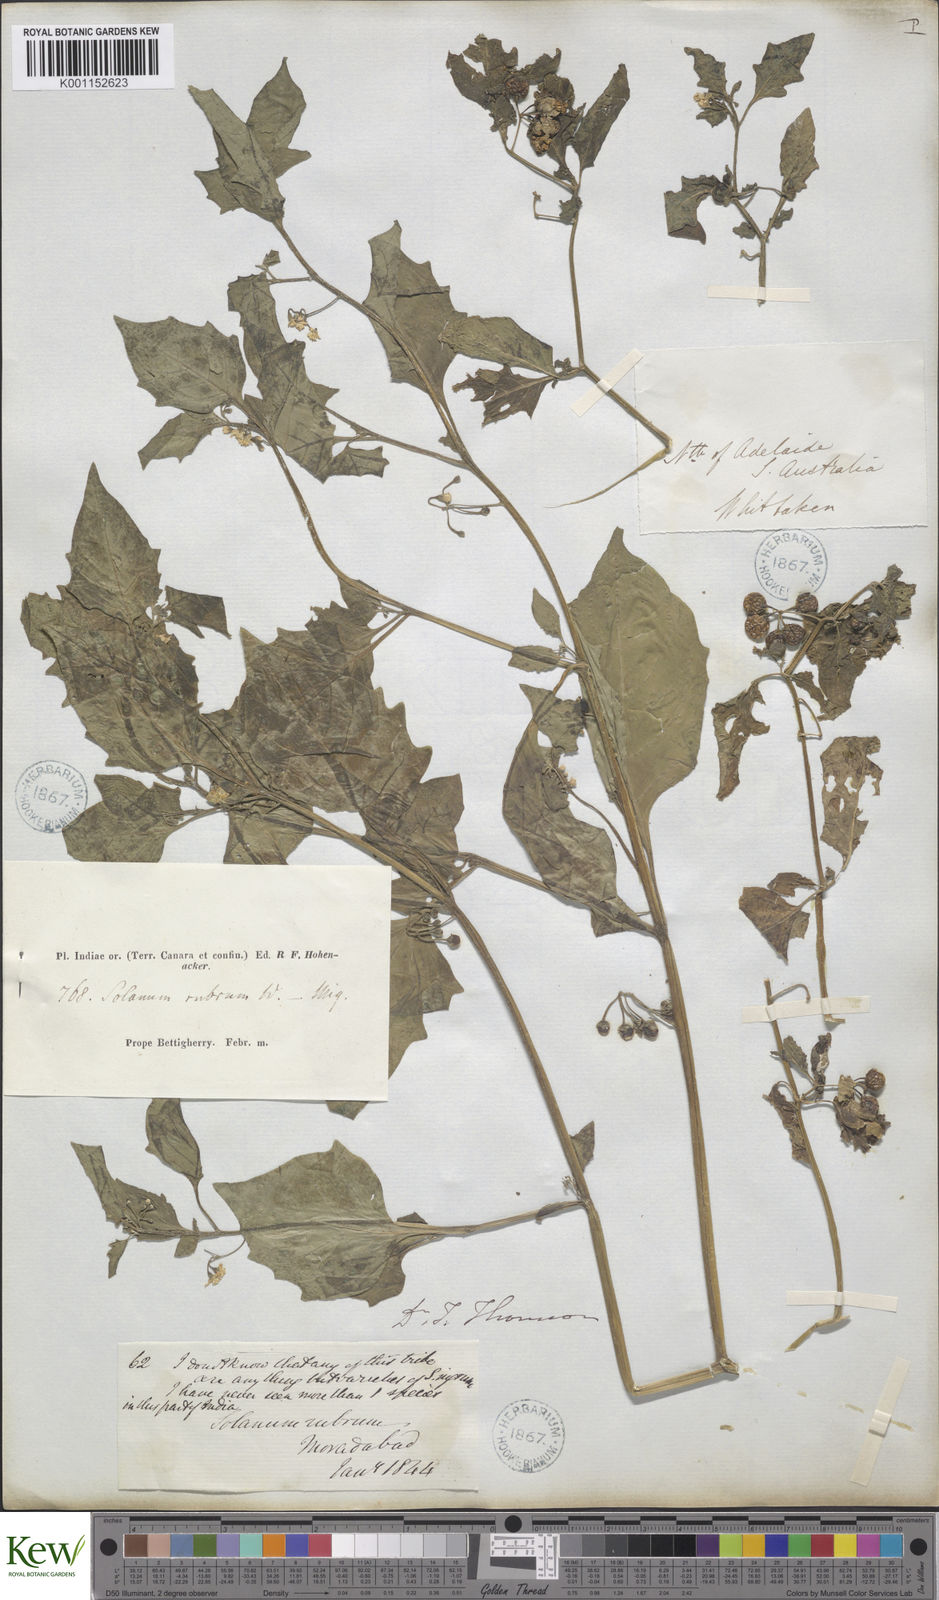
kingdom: Plantae
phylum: Tracheophyta
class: Magnoliopsida
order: Solanales
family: Solanaceae
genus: Solanum
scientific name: Solanum nigrum
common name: Black nightshade
